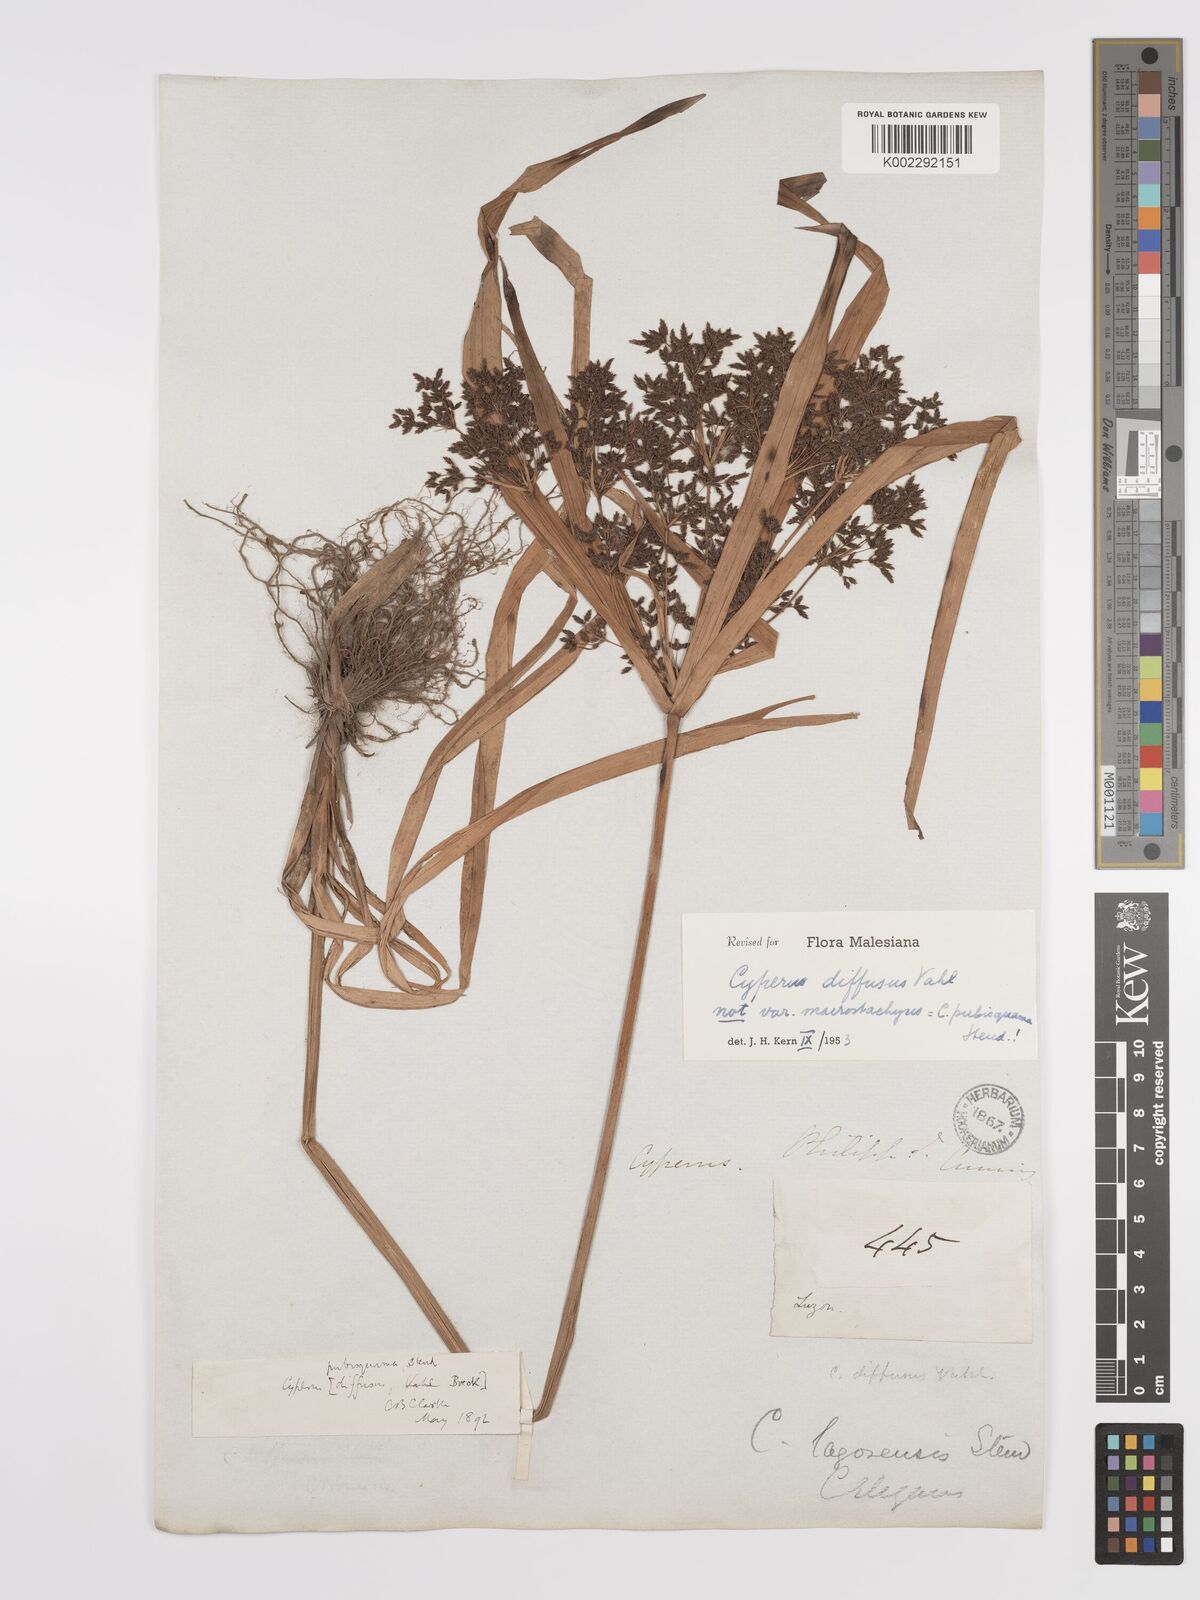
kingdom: Plantae
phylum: Tracheophyta
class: Liliopsida
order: Poales
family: Cyperaceae
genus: Cyperus
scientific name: Cyperus diffusus
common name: Dwarf umbrella grass
